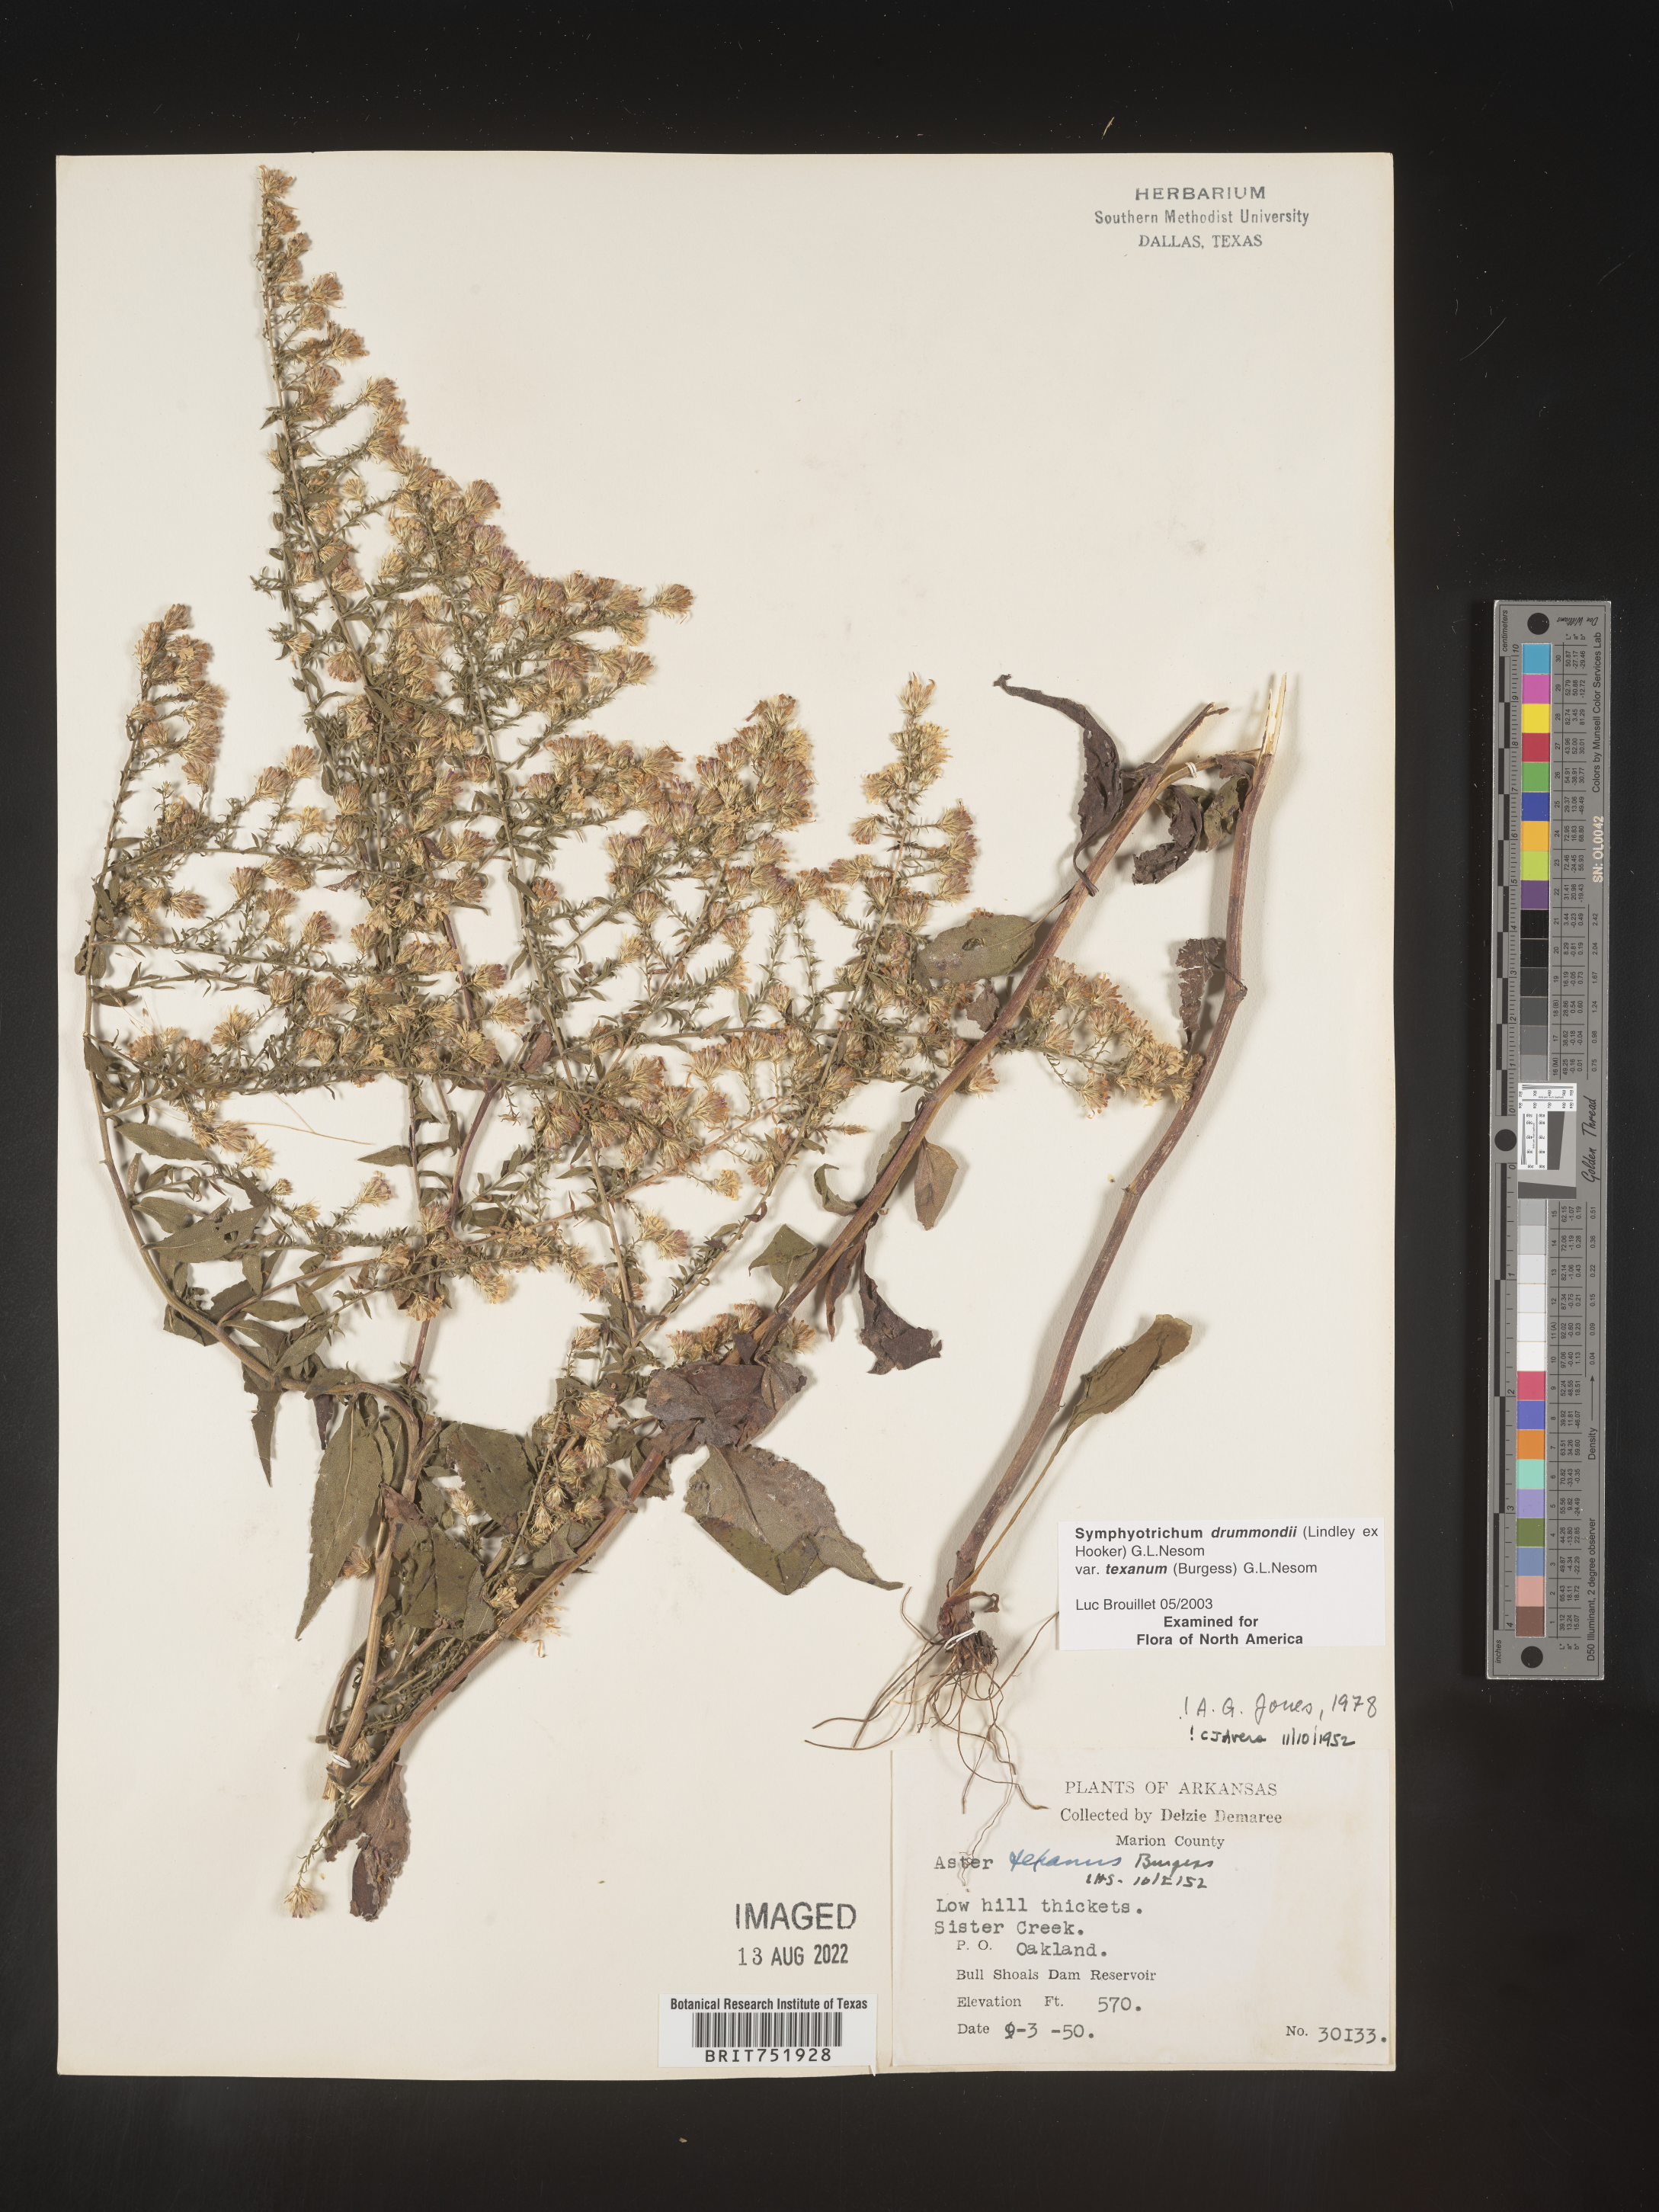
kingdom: Plantae
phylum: Tracheophyta
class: Magnoliopsida
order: Asterales
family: Asteraceae
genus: Symphyotrichum
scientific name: Symphyotrichum drummondii
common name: Drummond's aster
